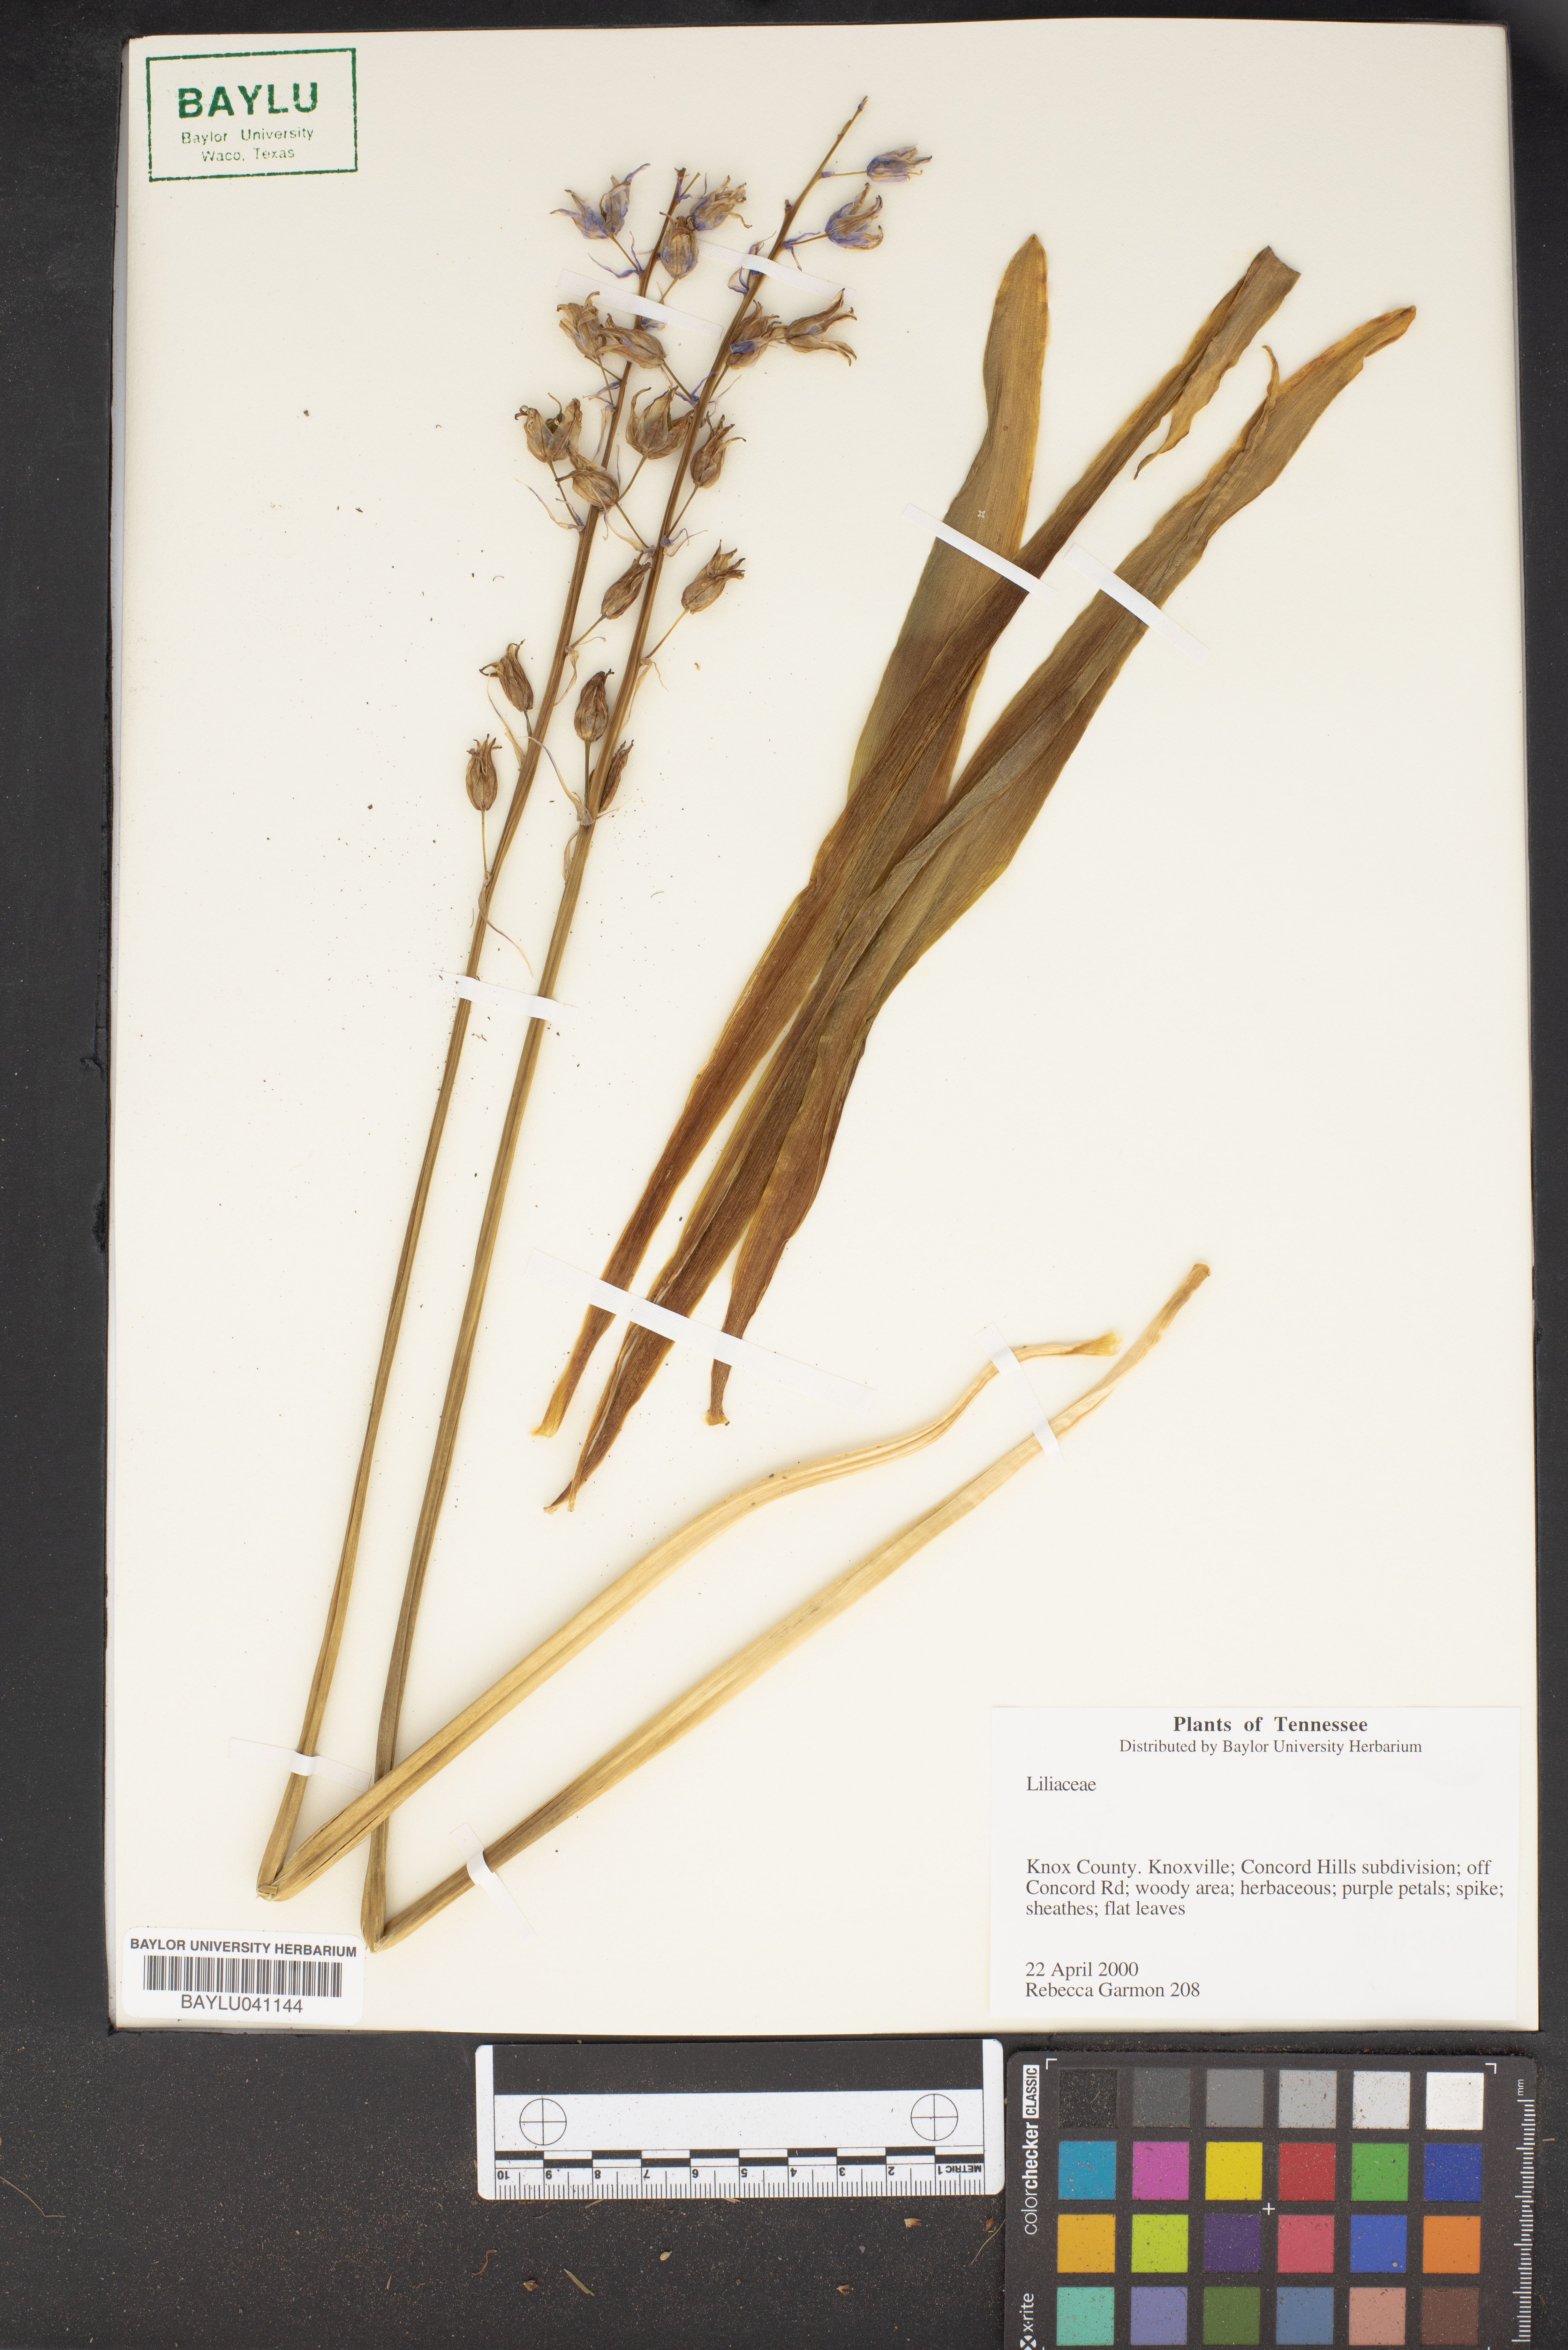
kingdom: Plantae
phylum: Tracheophyta
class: Liliopsida
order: Liliales
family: Liliaceae
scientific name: Liliaceae
